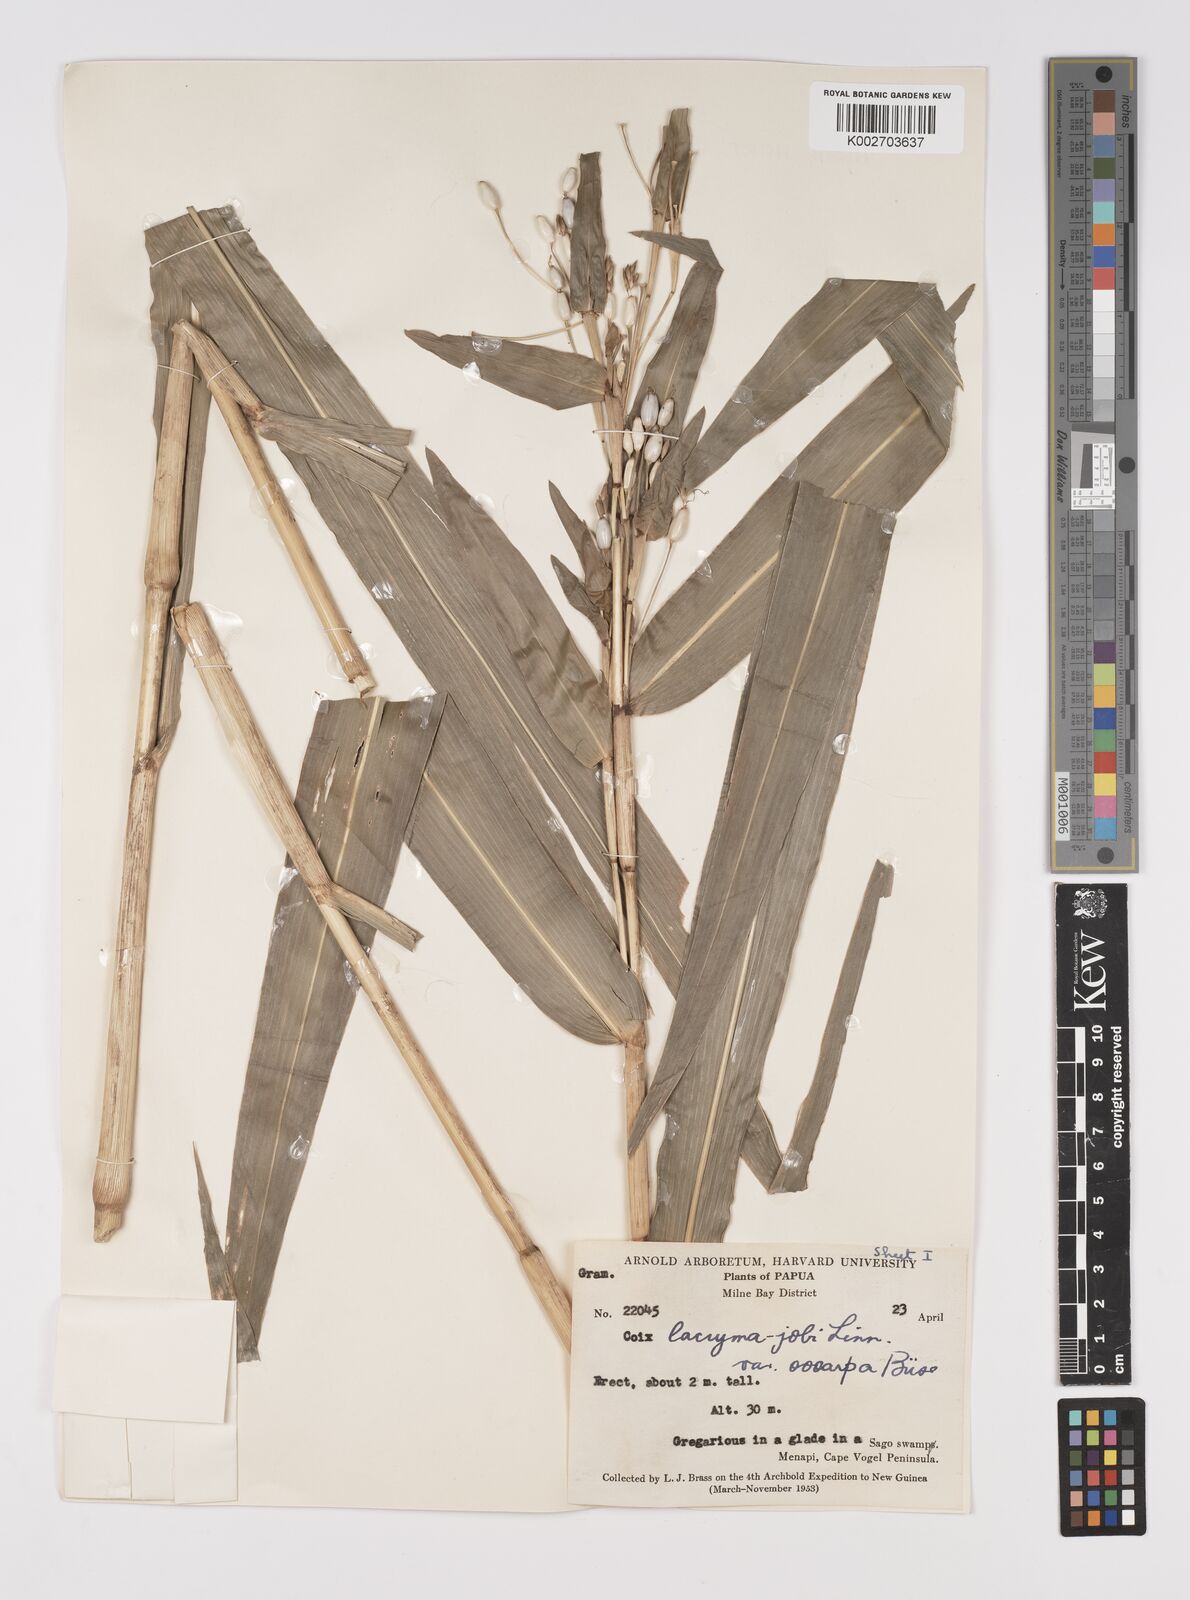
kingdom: Plantae
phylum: Tracheophyta
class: Liliopsida
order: Poales
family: Poaceae
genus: Coix
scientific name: Coix lacryma-jobi
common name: Job's tears
